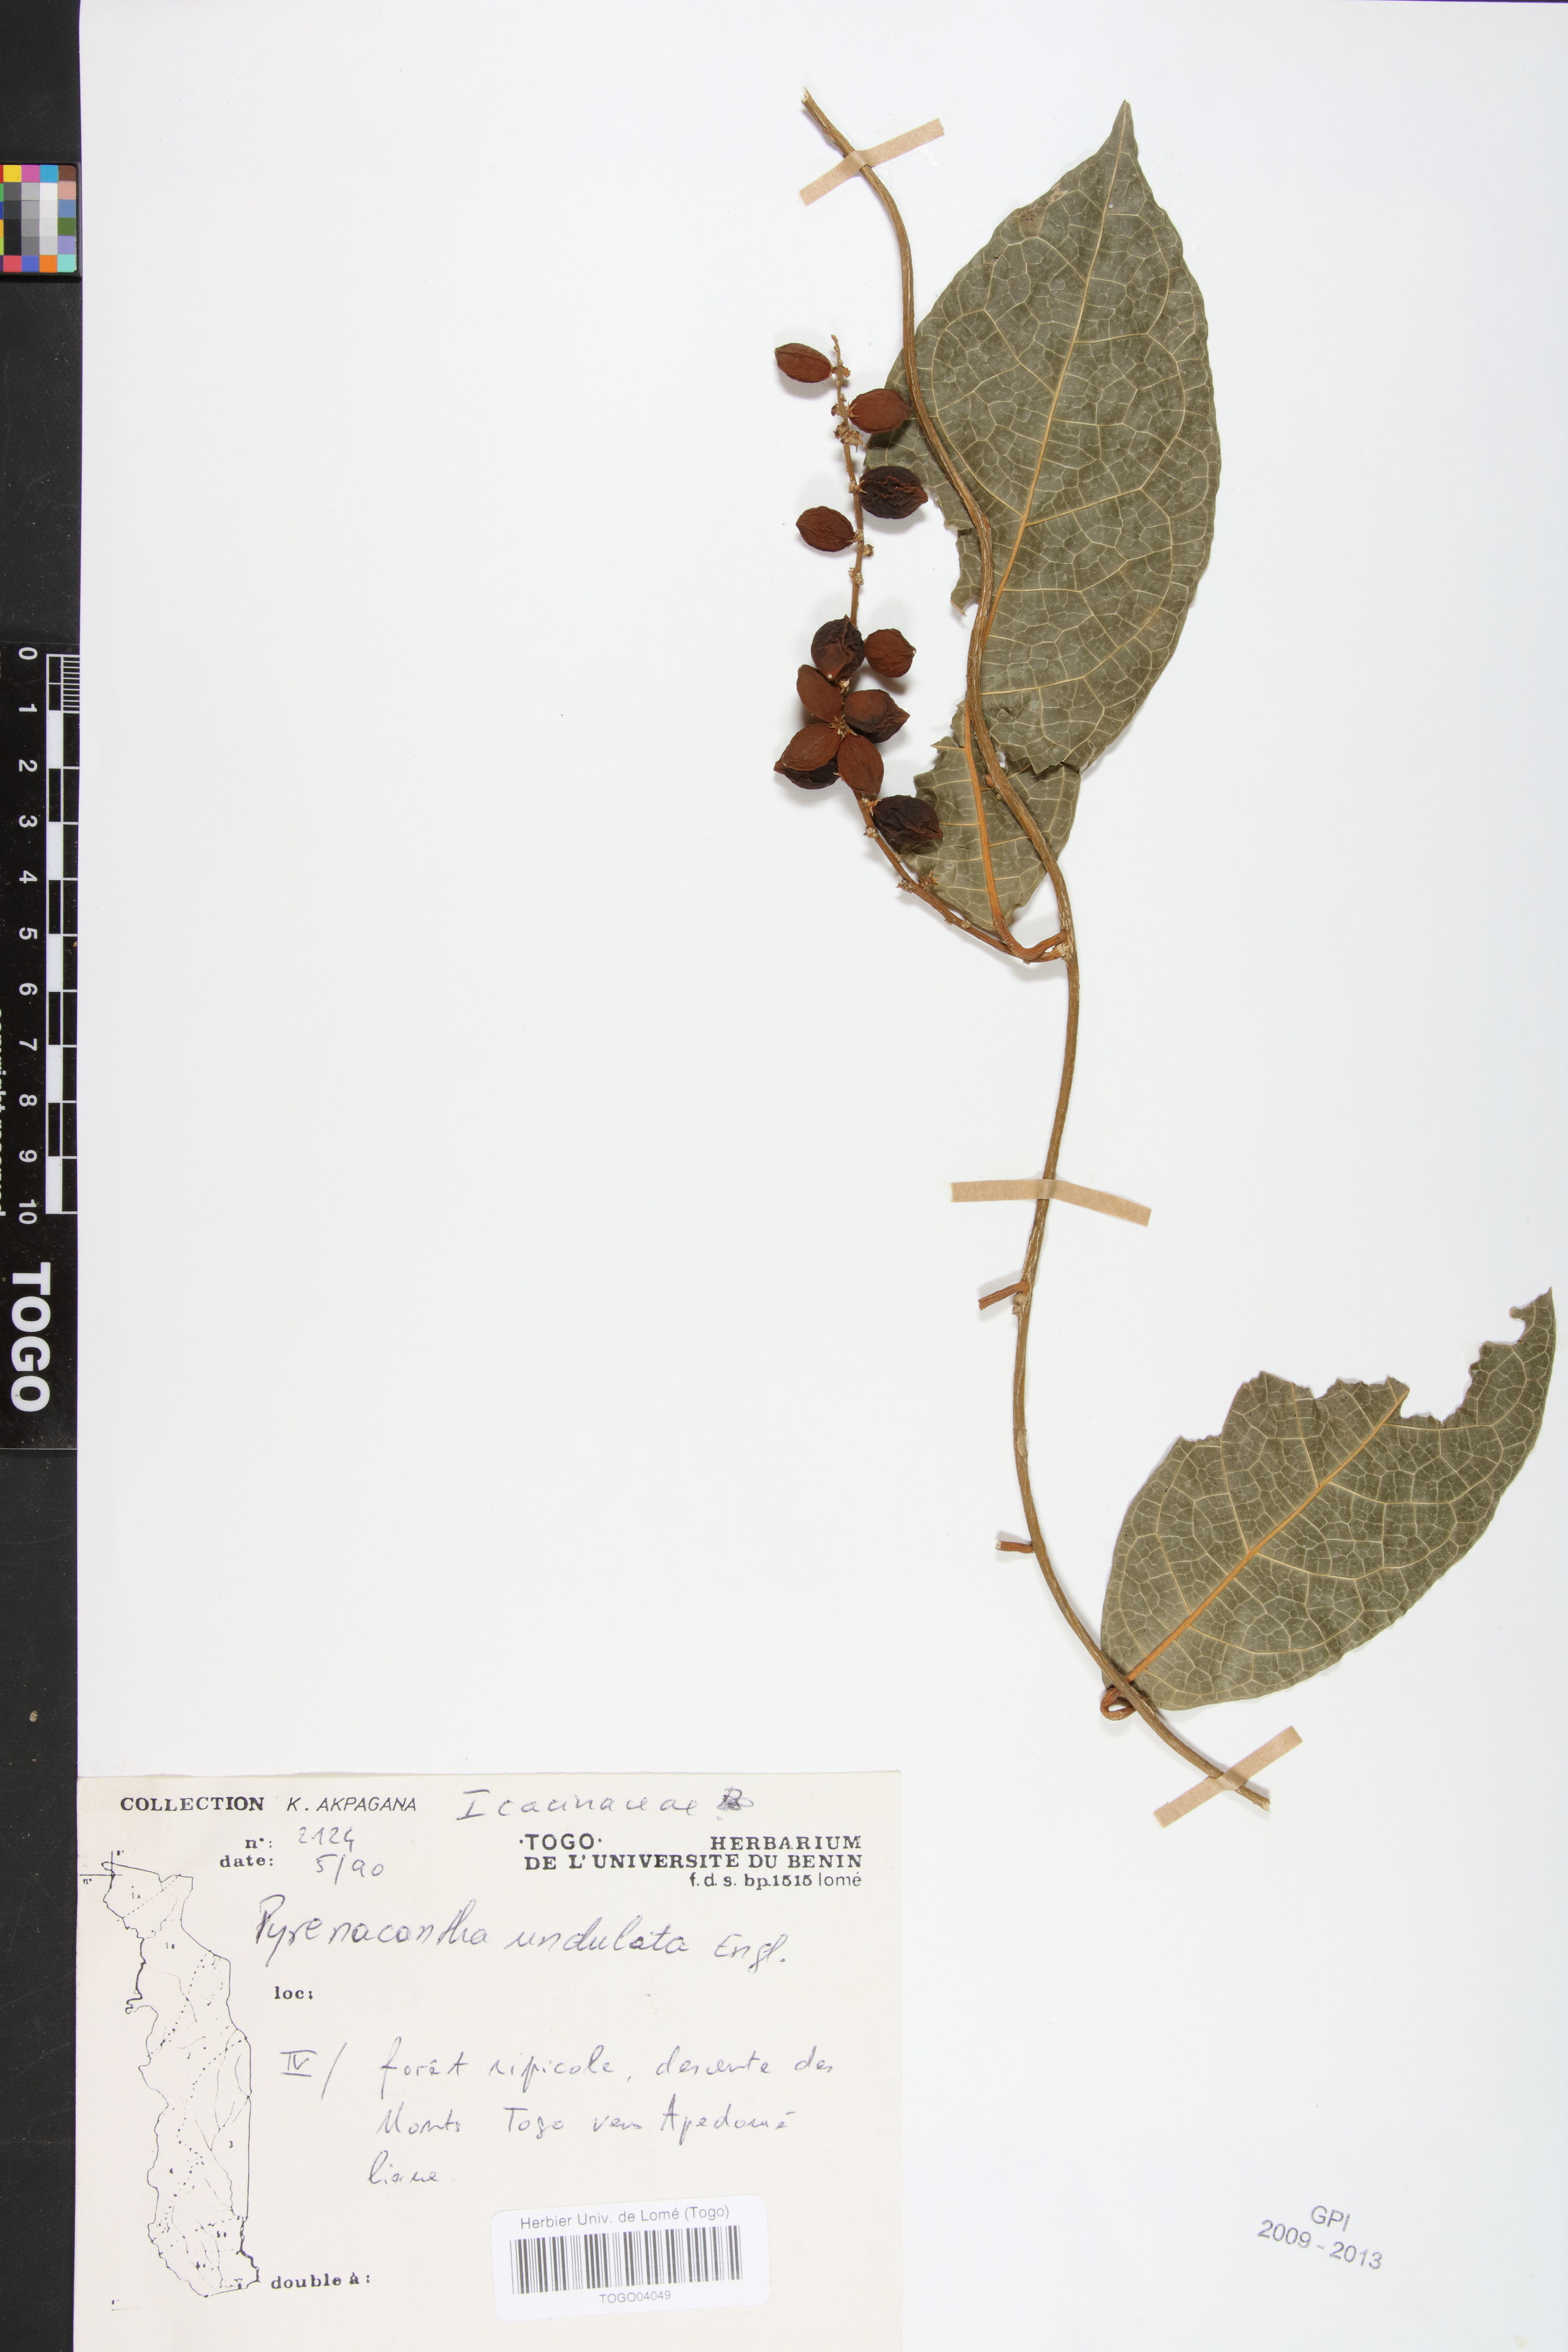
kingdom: Plantae
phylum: Tracheophyta
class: Magnoliopsida
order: Icacinales
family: Icacinaceae
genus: Pyrenacantha
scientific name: Pyrenacantha undulata
